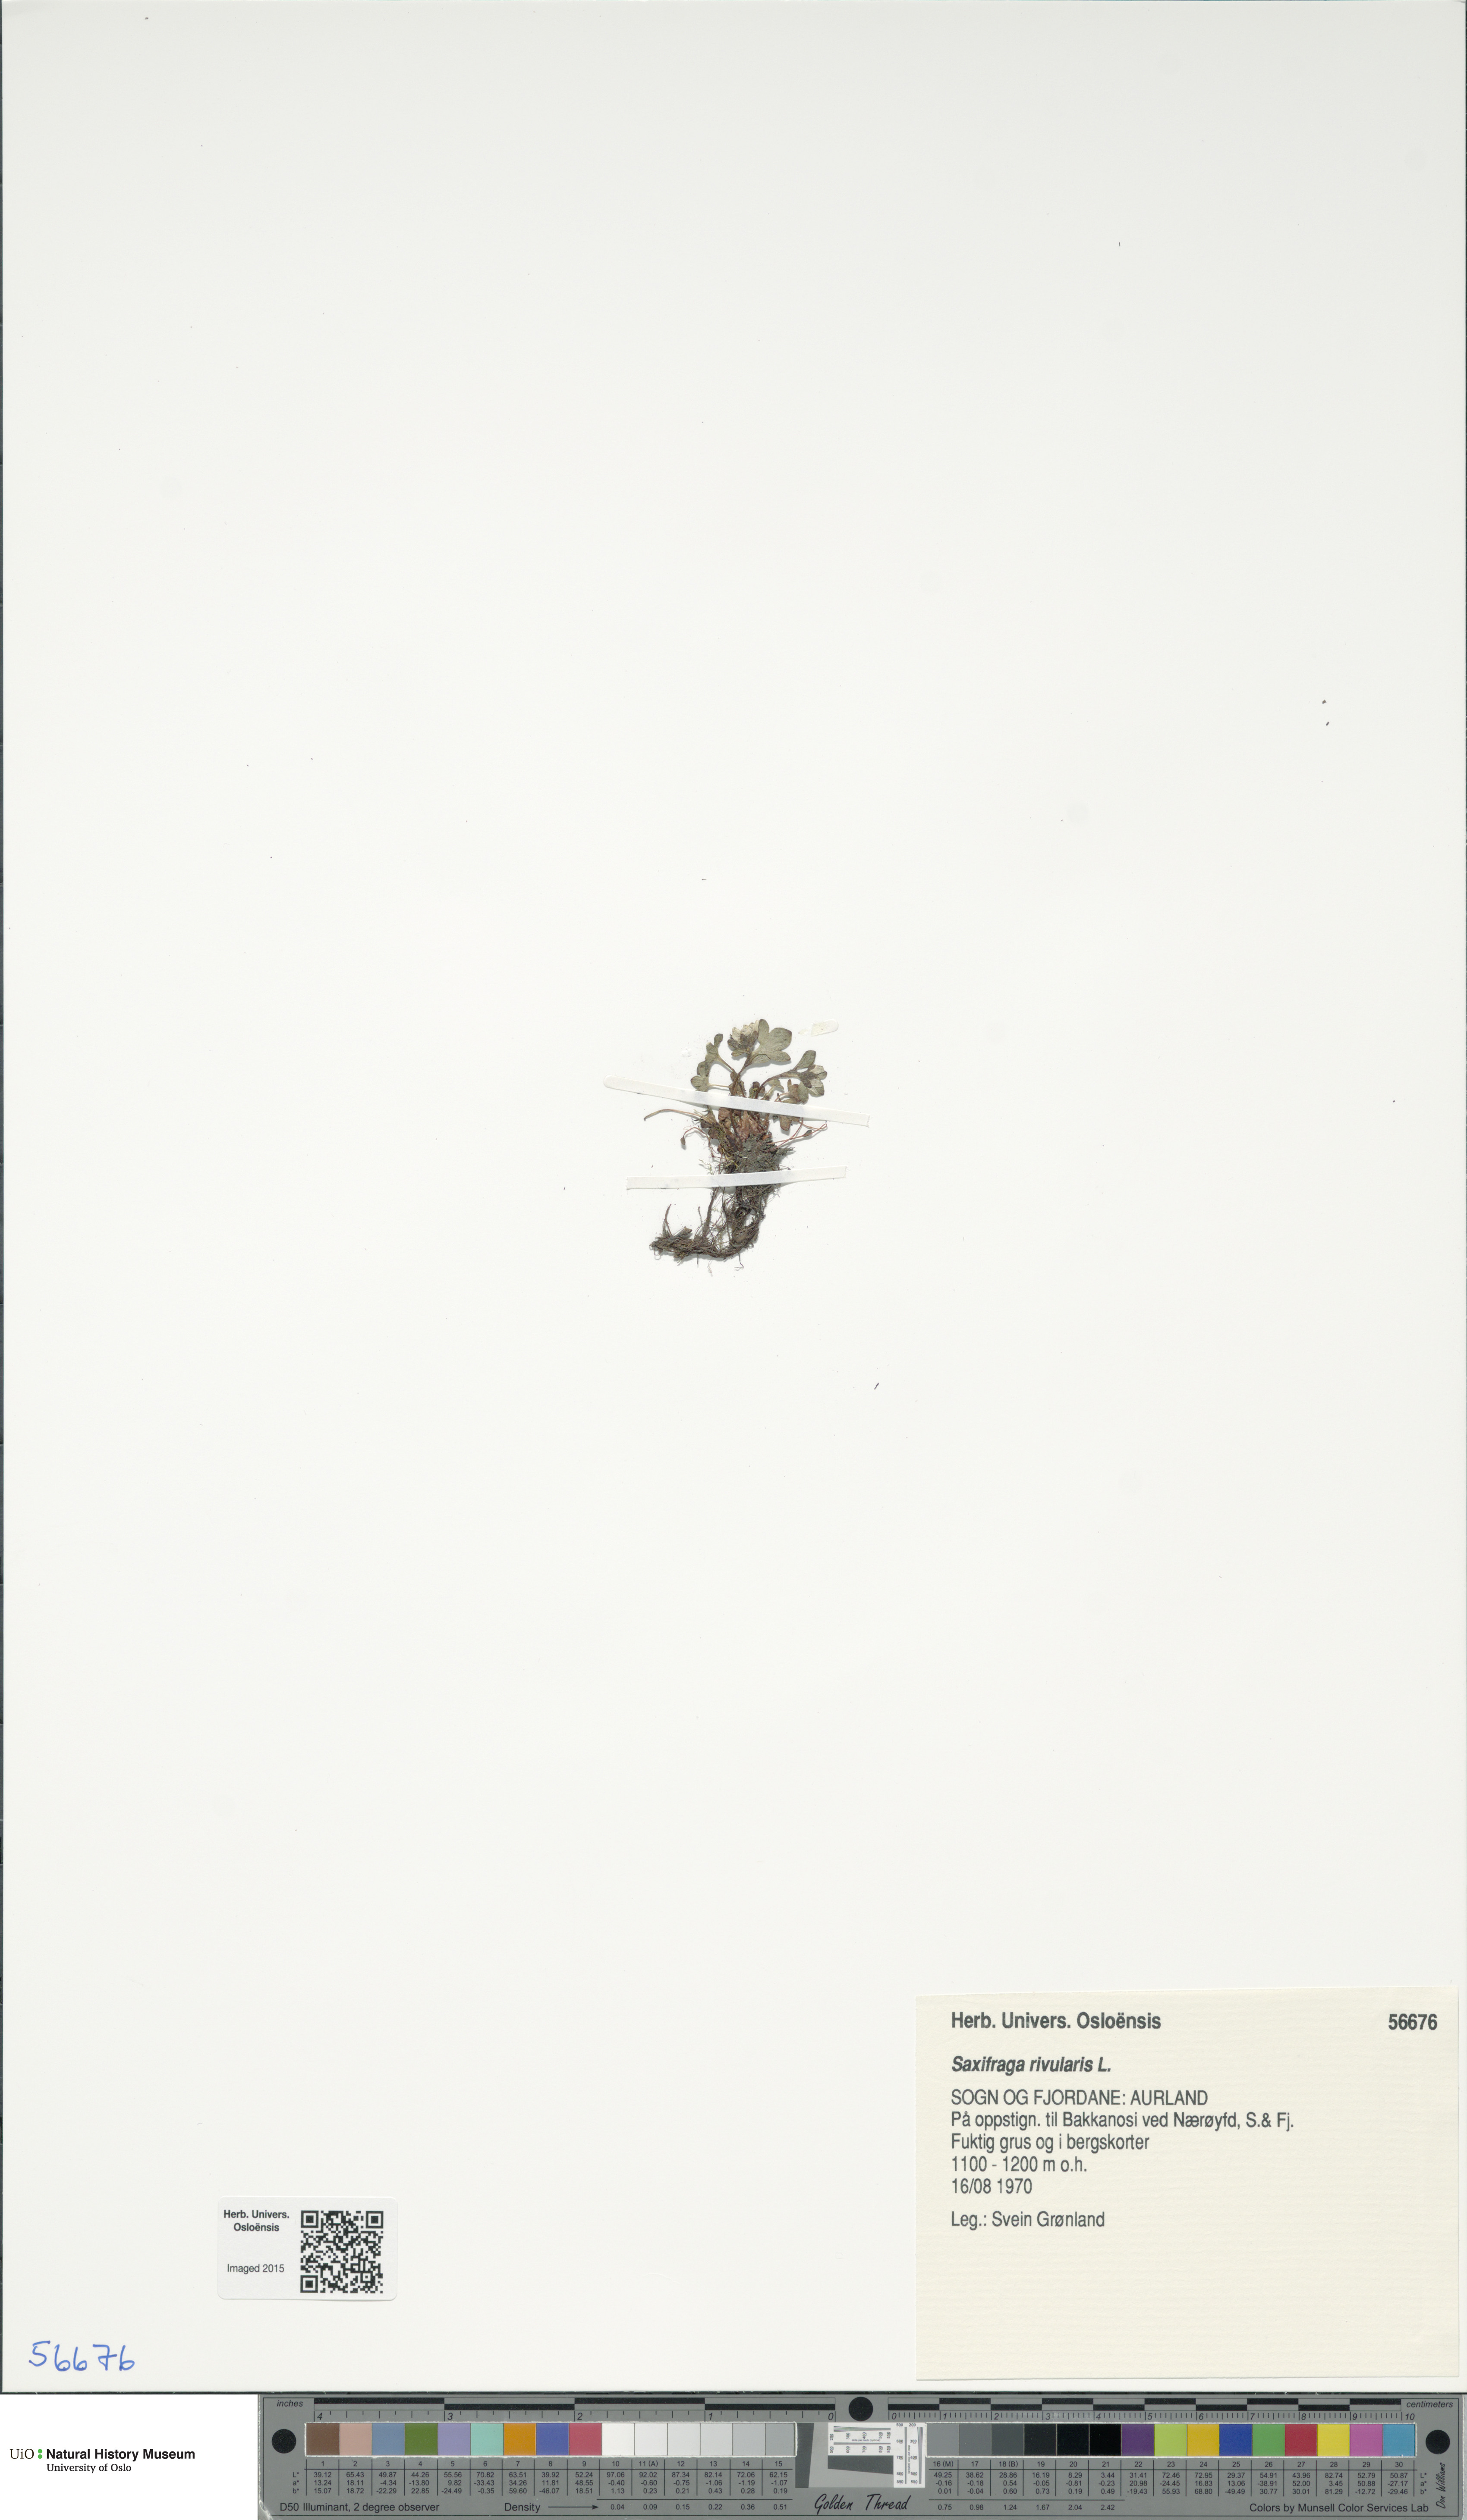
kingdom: Plantae
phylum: Tracheophyta
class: Magnoliopsida
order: Saxifragales
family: Saxifragaceae
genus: Saxifraga
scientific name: Saxifraga rivularis
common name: Highland saxifrage
